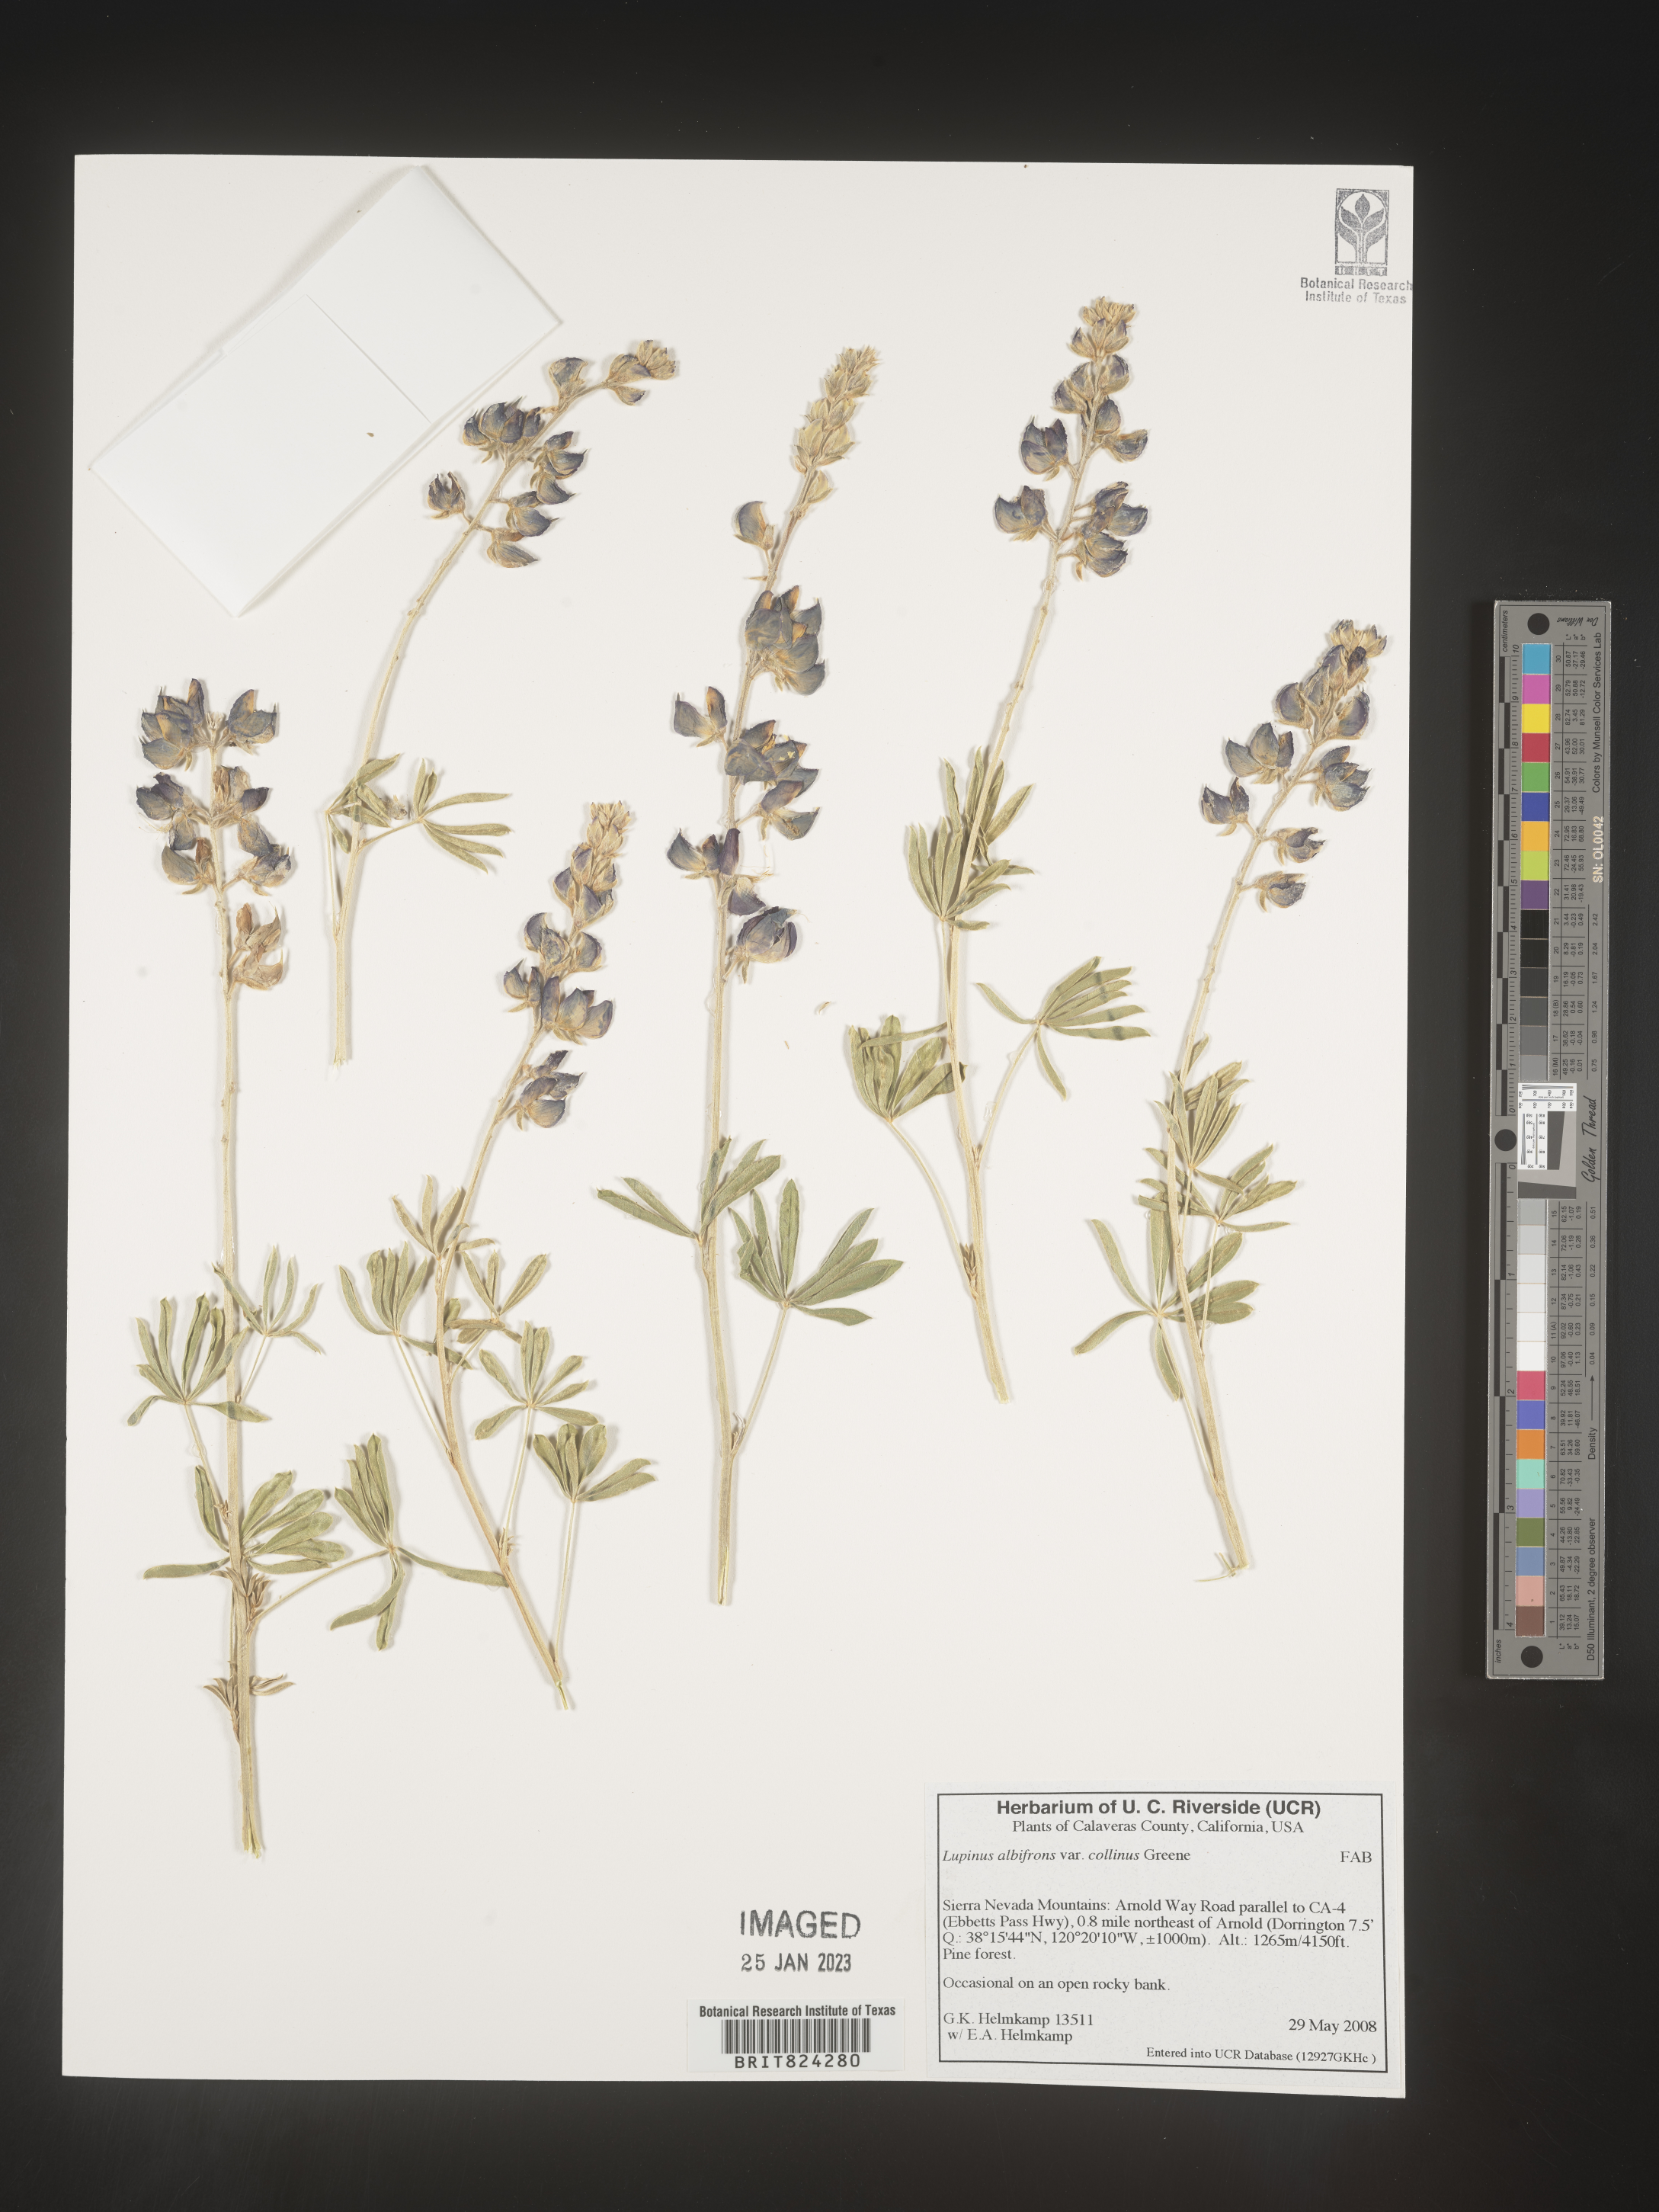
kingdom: Plantae
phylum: Tracheophyta
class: Magnoliopsida
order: Fabales
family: Fabaceae
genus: Lupinus
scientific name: Lupinus albifrons
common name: Foothill lupine
